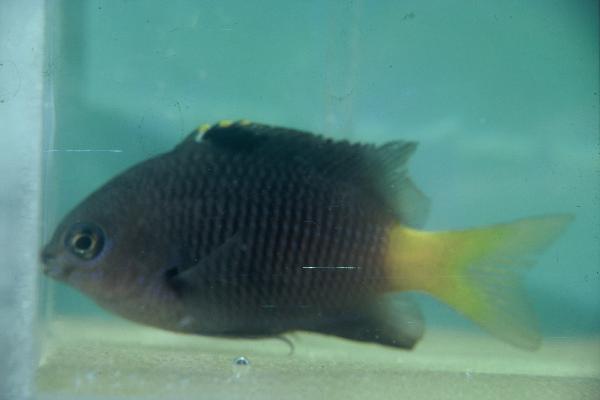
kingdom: Animalia
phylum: Chordata
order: Perciformes
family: Pomacentridae
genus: Stegastes
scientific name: Stegastes fasciolatus
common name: Pacific gregory
